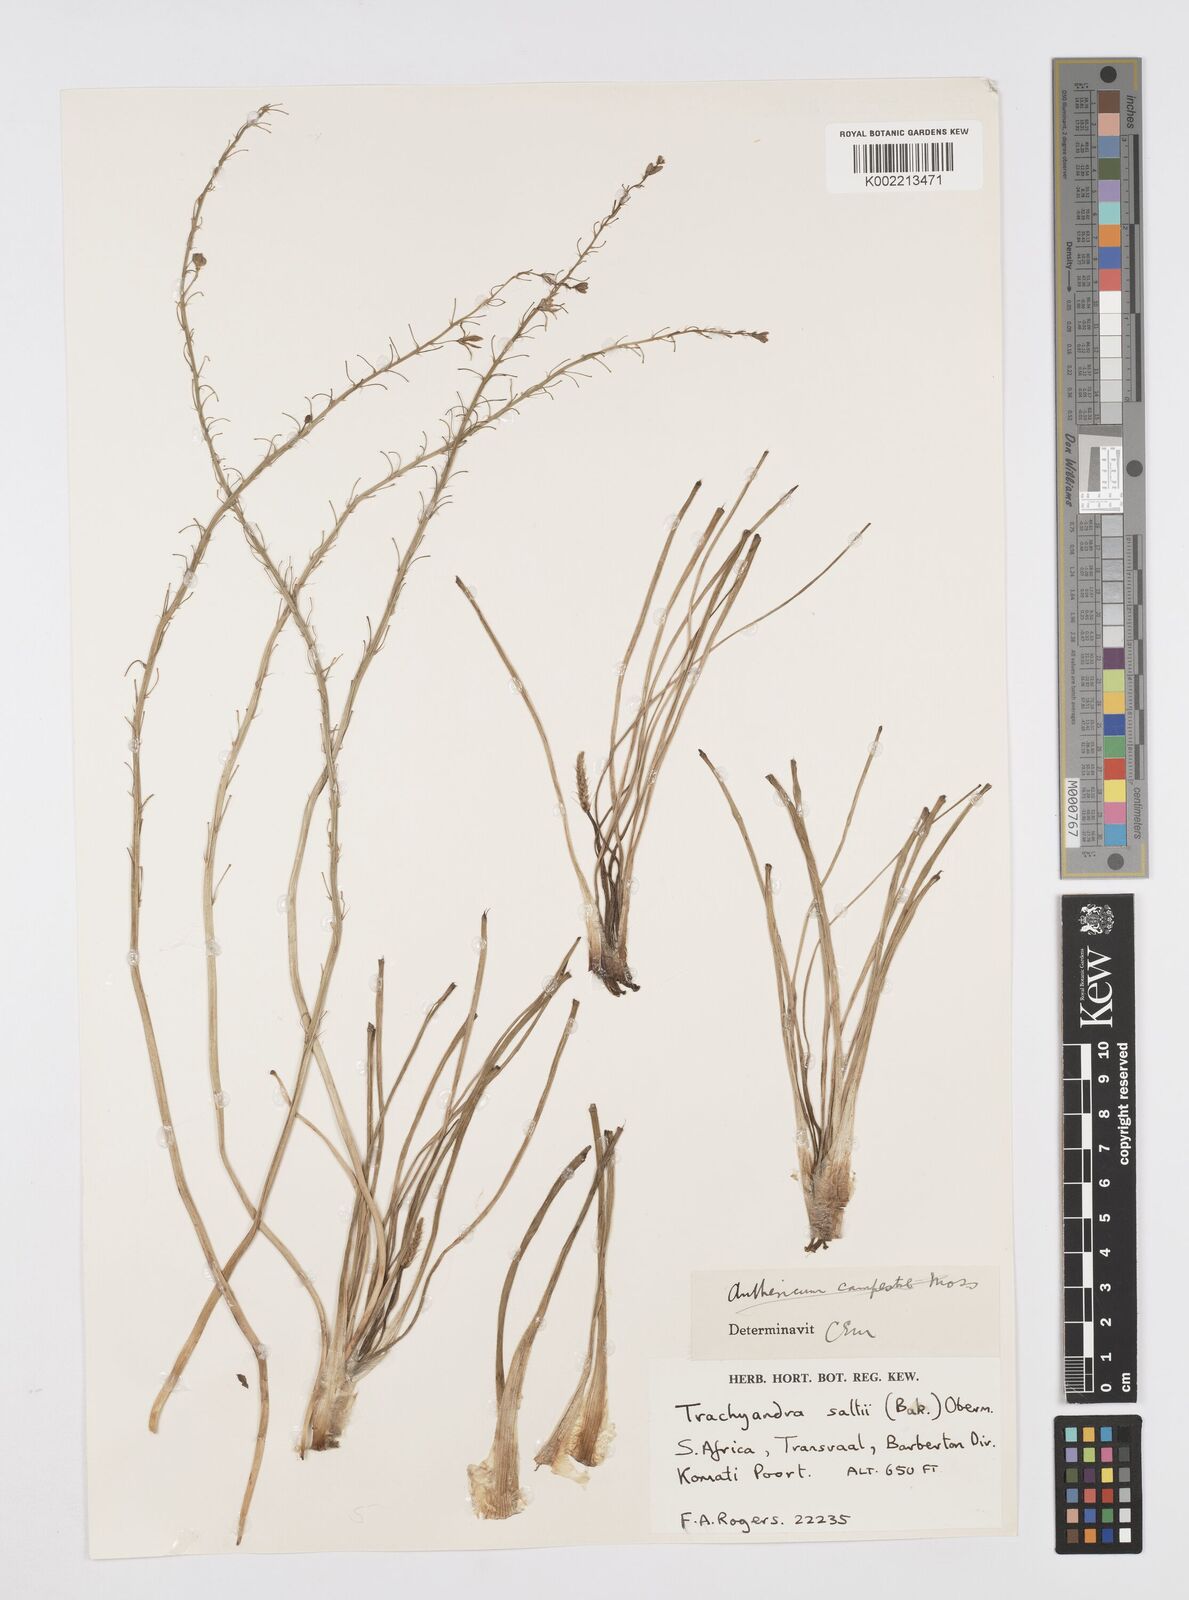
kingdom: Plantae
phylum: Tracheophyta
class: Liliopsida
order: Asparagales
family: Asphodelaceae
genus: Trachyandra
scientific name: Trachyandra saltii
